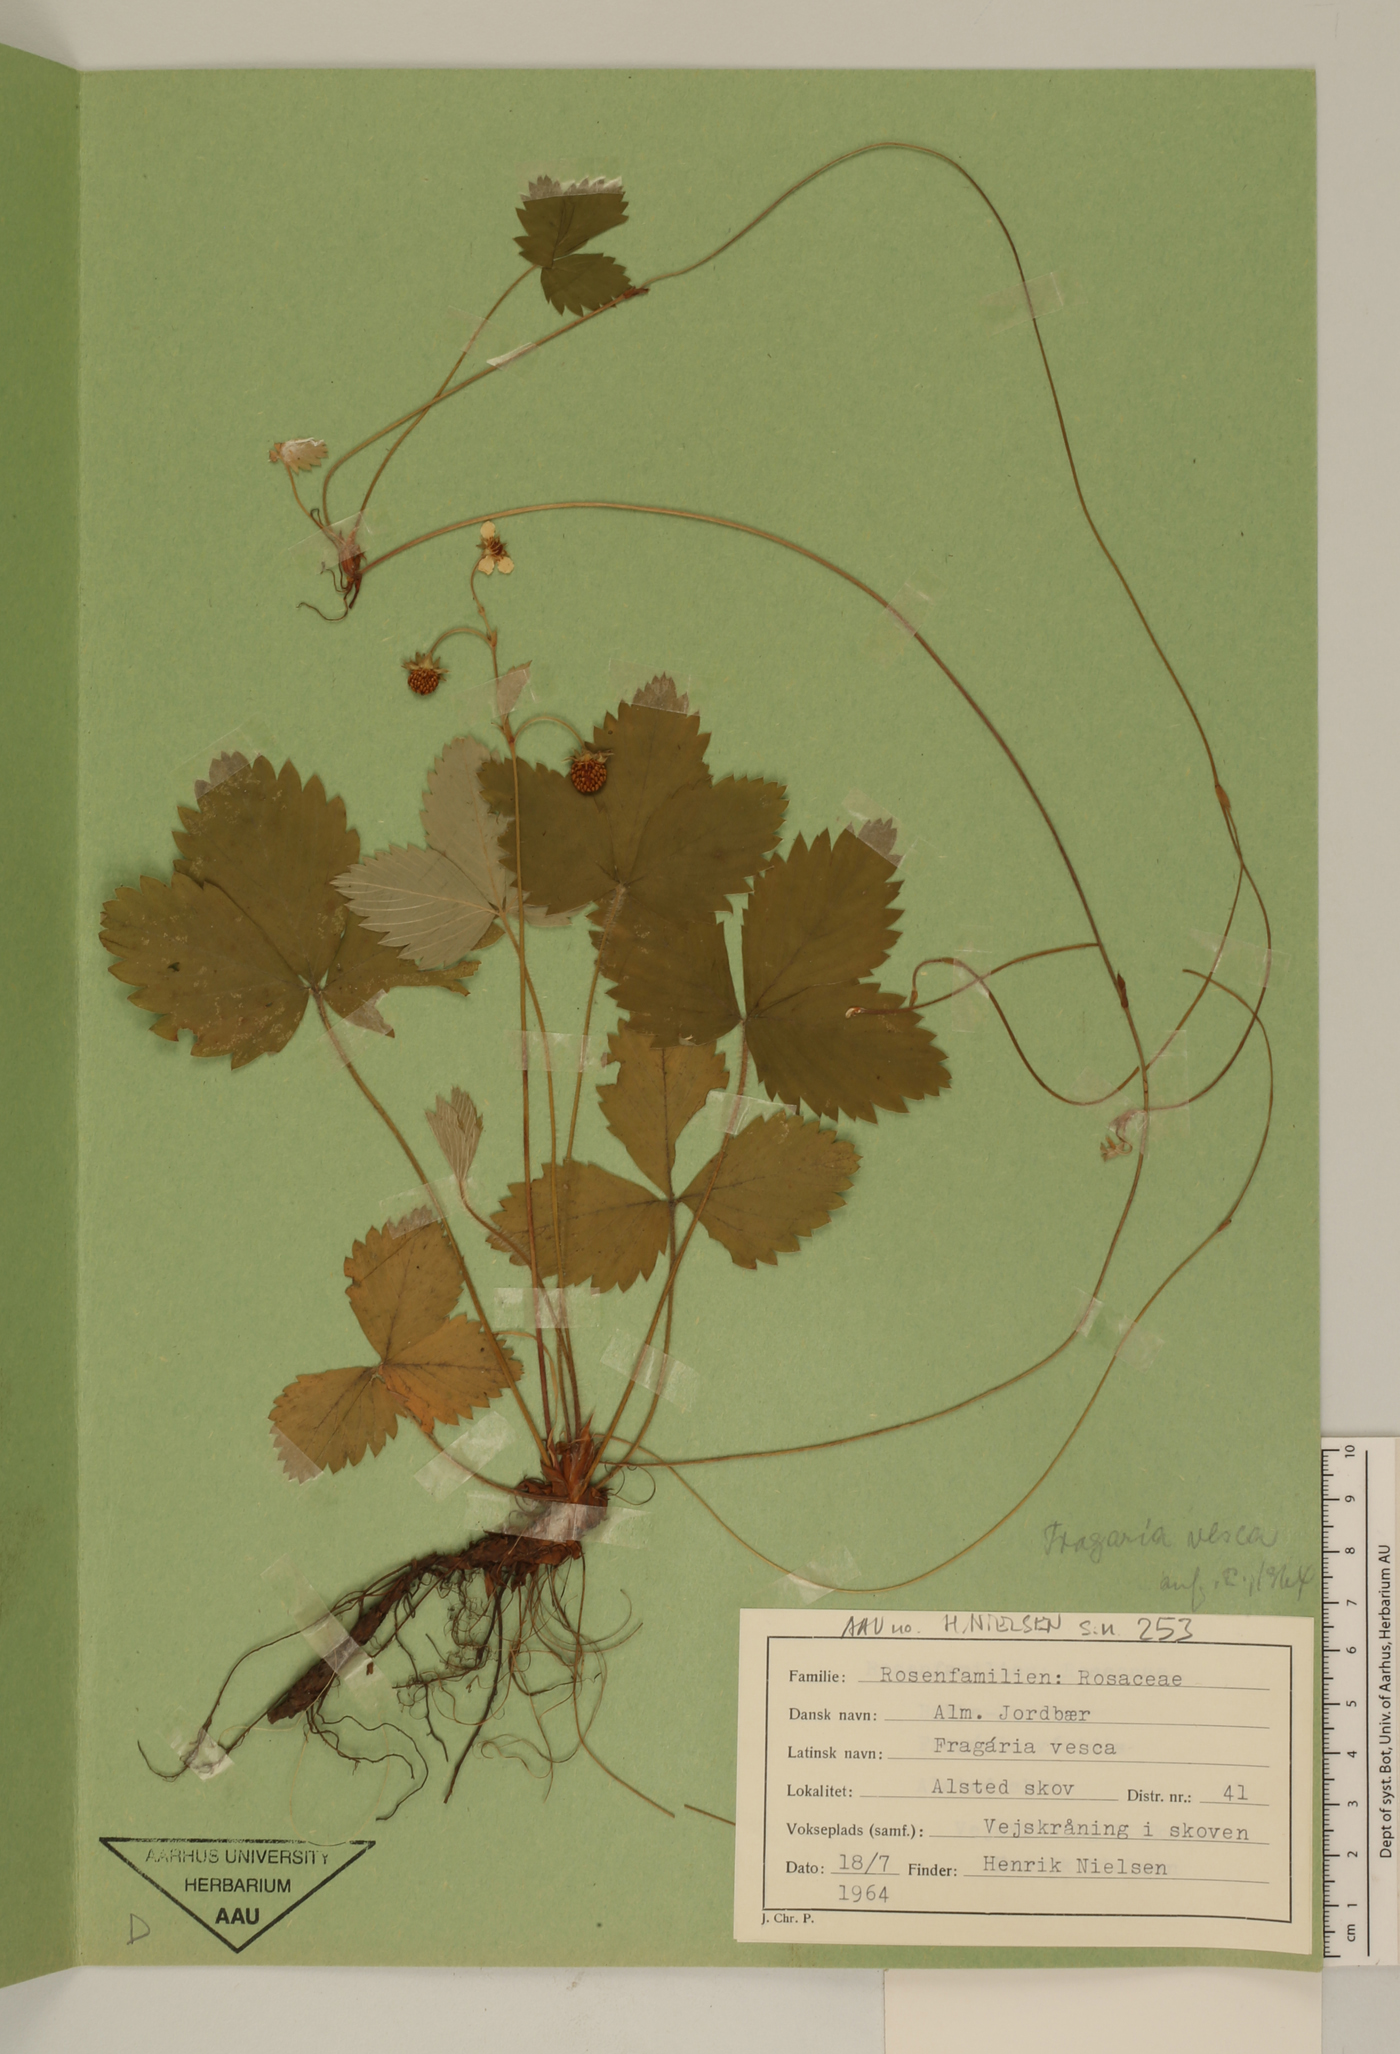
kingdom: Plantae
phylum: Tracheophyta
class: Magnoliopsida
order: Rosales
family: Rosaceae
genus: Fragaria
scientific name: Fragaria vesca
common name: Wild strawberry
